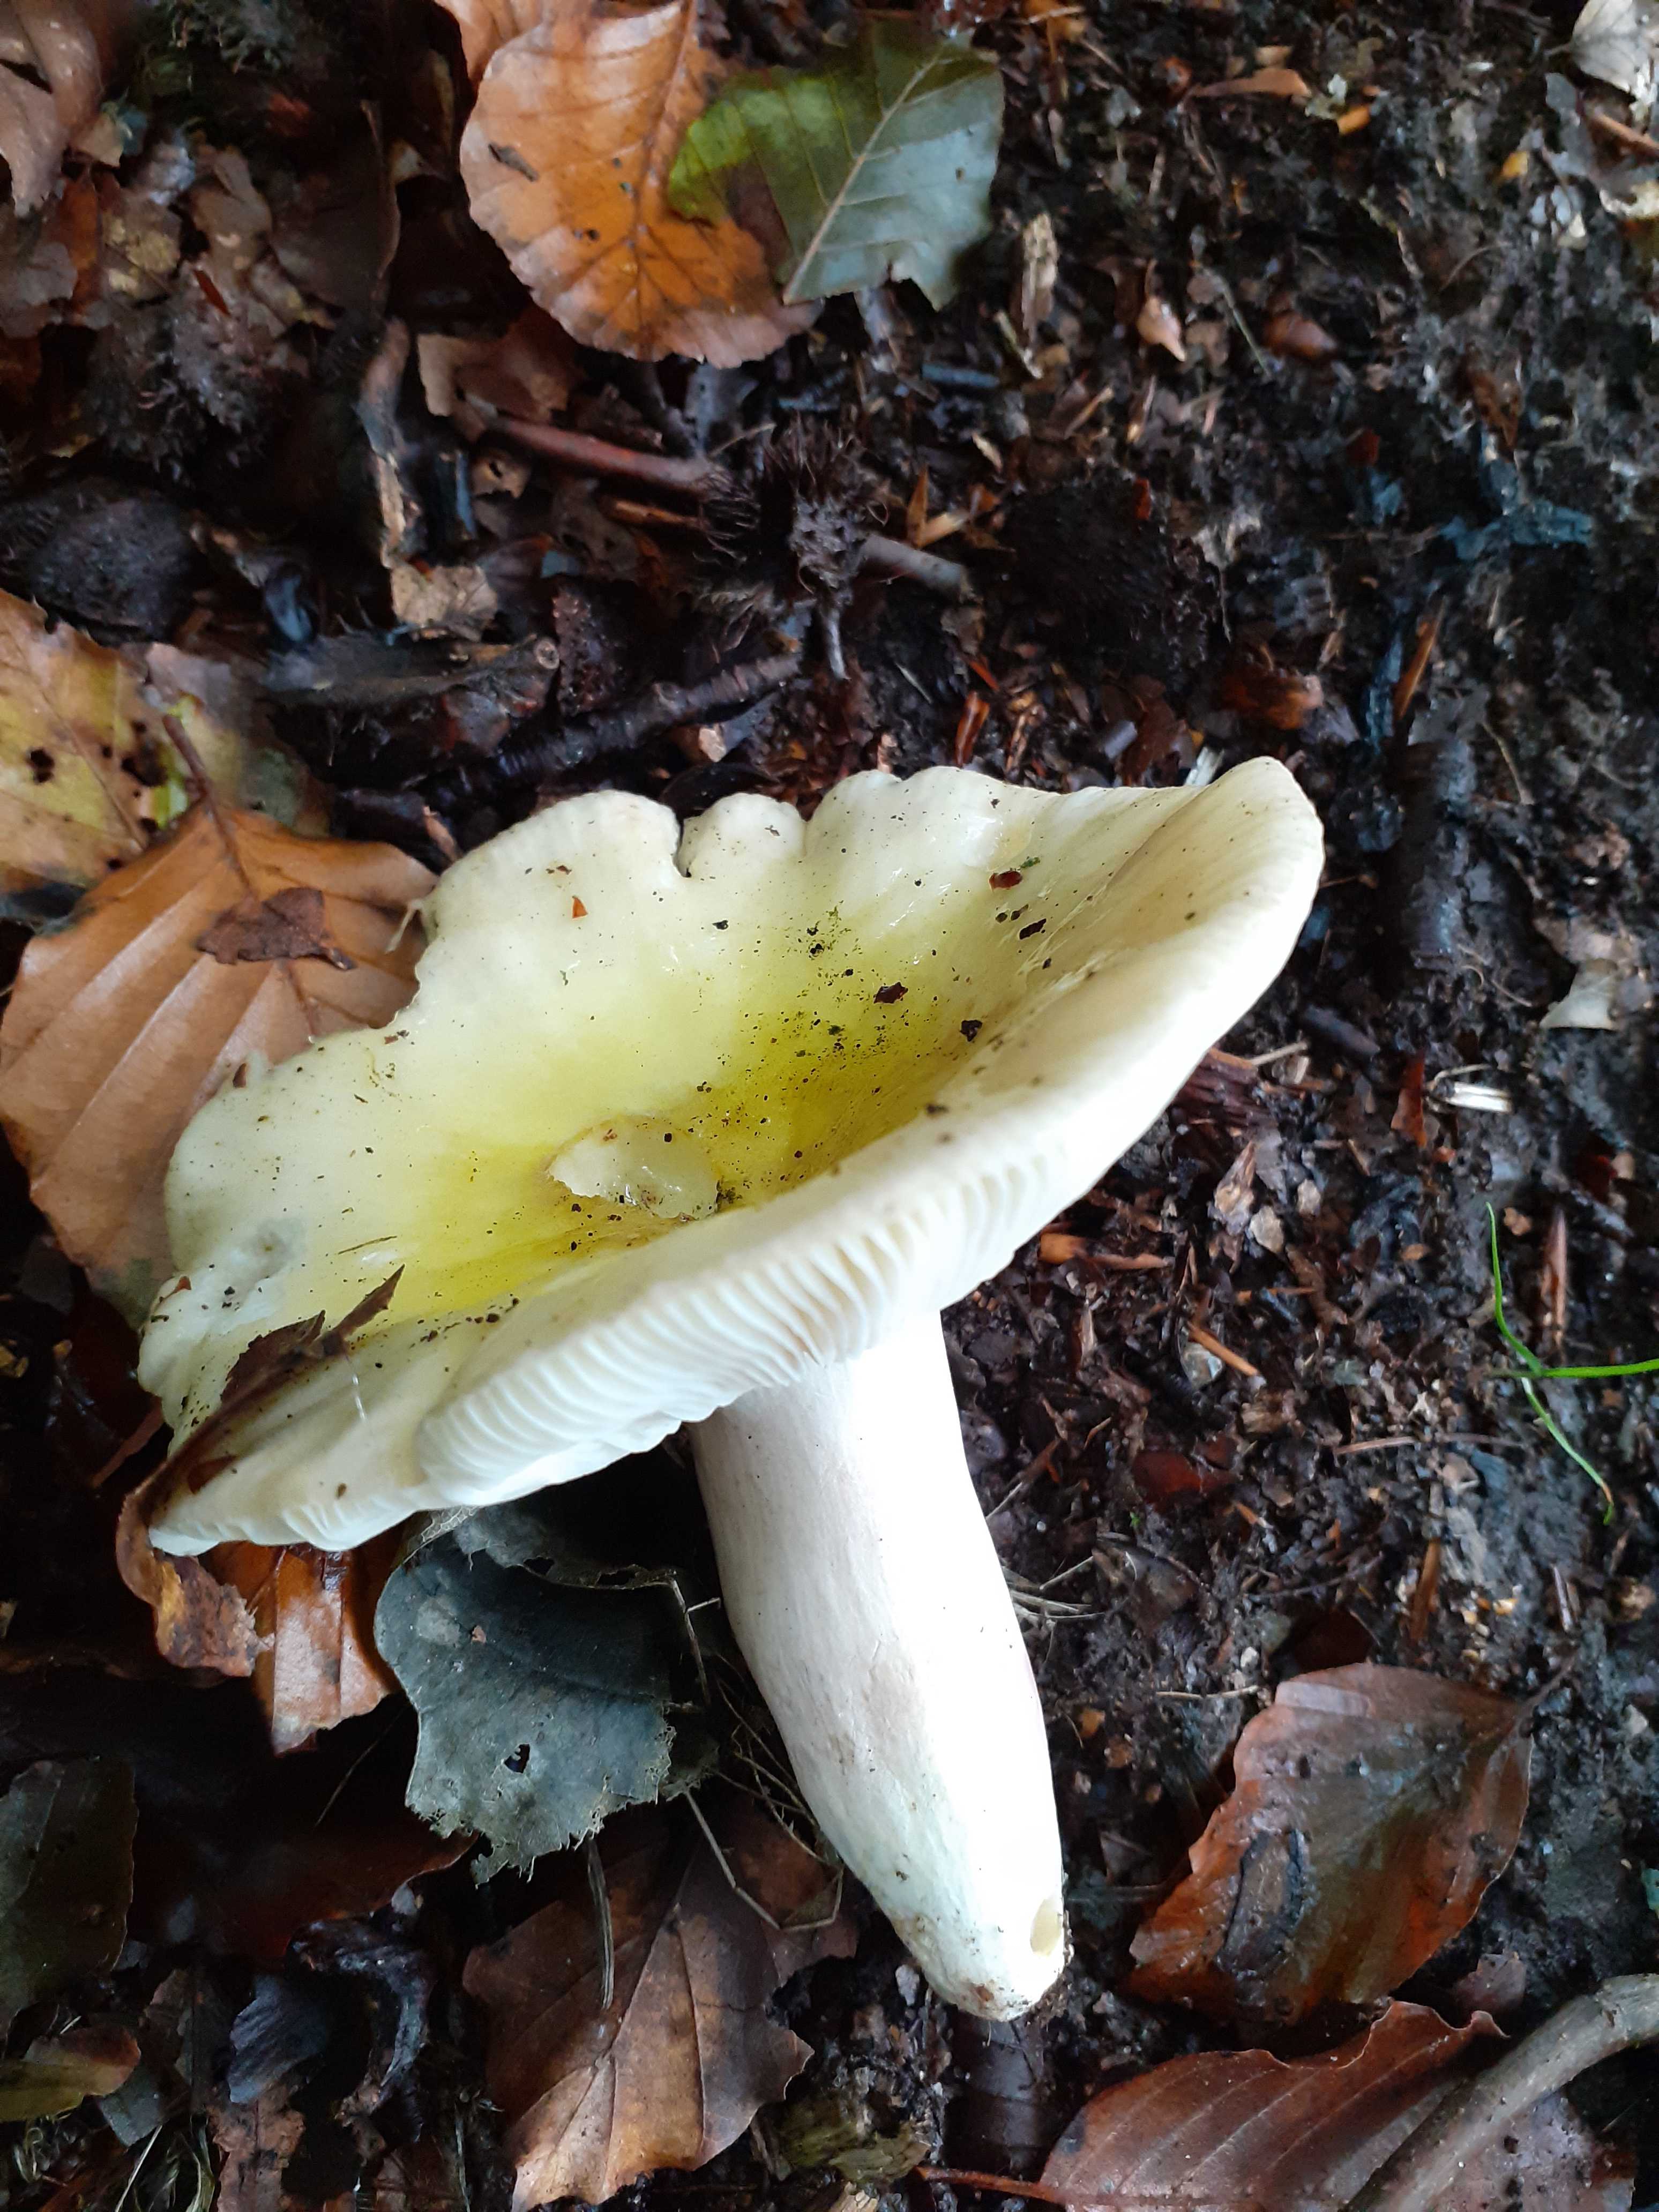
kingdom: Fungi
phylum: Basidiomycota
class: Agaricomycetes
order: Russulales
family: Russulaceae
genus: Russula
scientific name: Russula violeipes
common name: ferskengul skørhat
